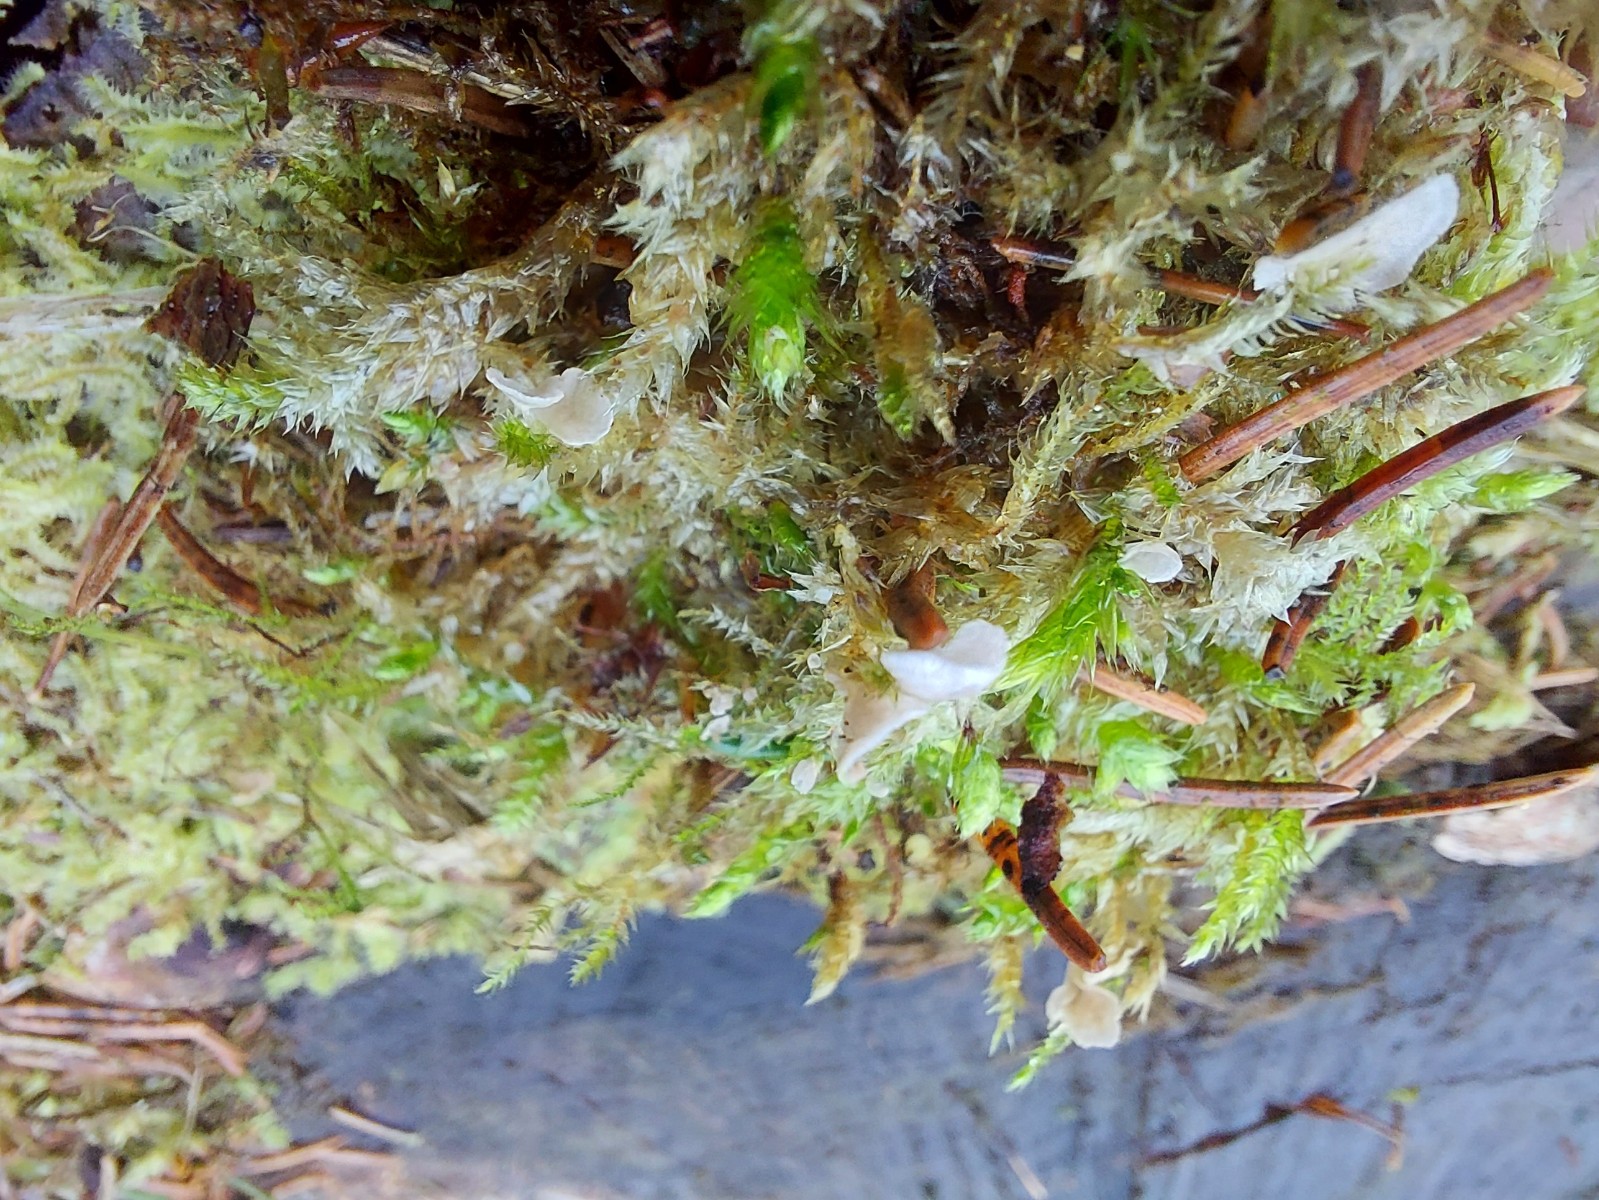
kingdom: Fungi
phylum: Basidiomycota
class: Agaricomycetes
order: Agaricales
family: Hygrophoraceae
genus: Arrhenia
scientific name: Arrhenia retiruga
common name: lille fontænehat
